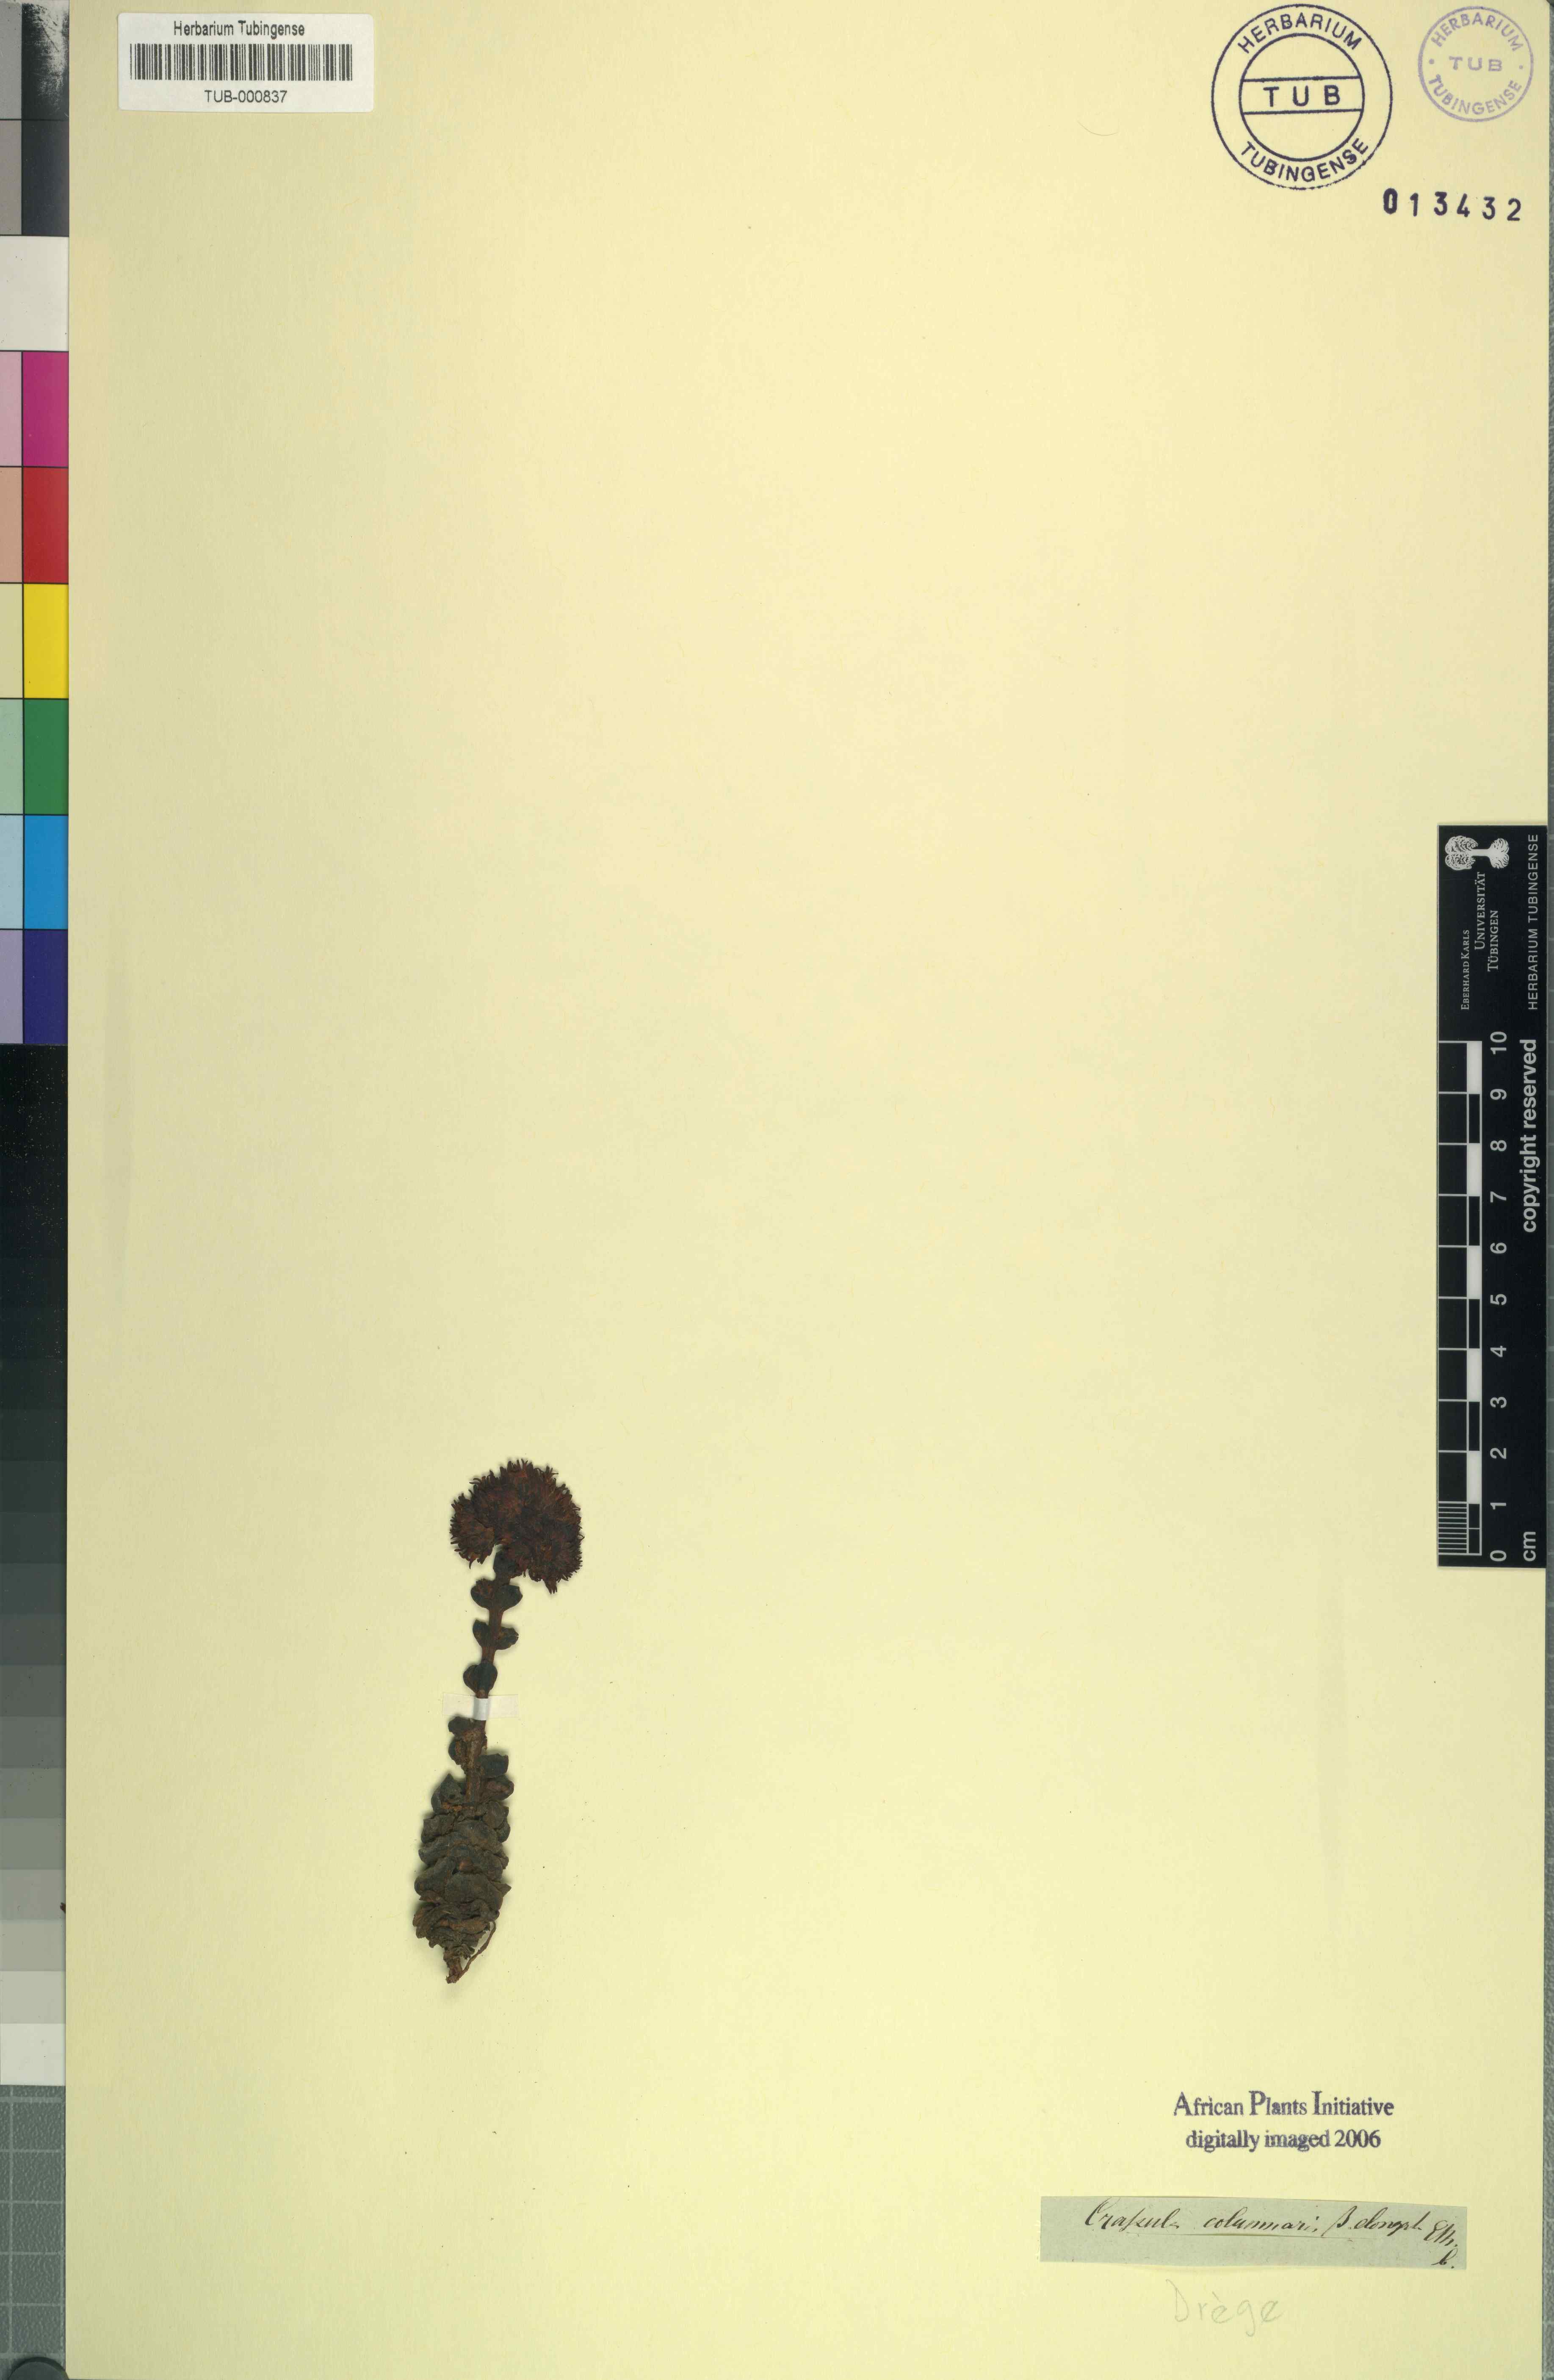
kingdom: Plantae
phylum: Tracheophyta
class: Magnoliopsida
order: Saxifragales
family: Crassulaceae
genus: Crassula
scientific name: Crassula columnaris
